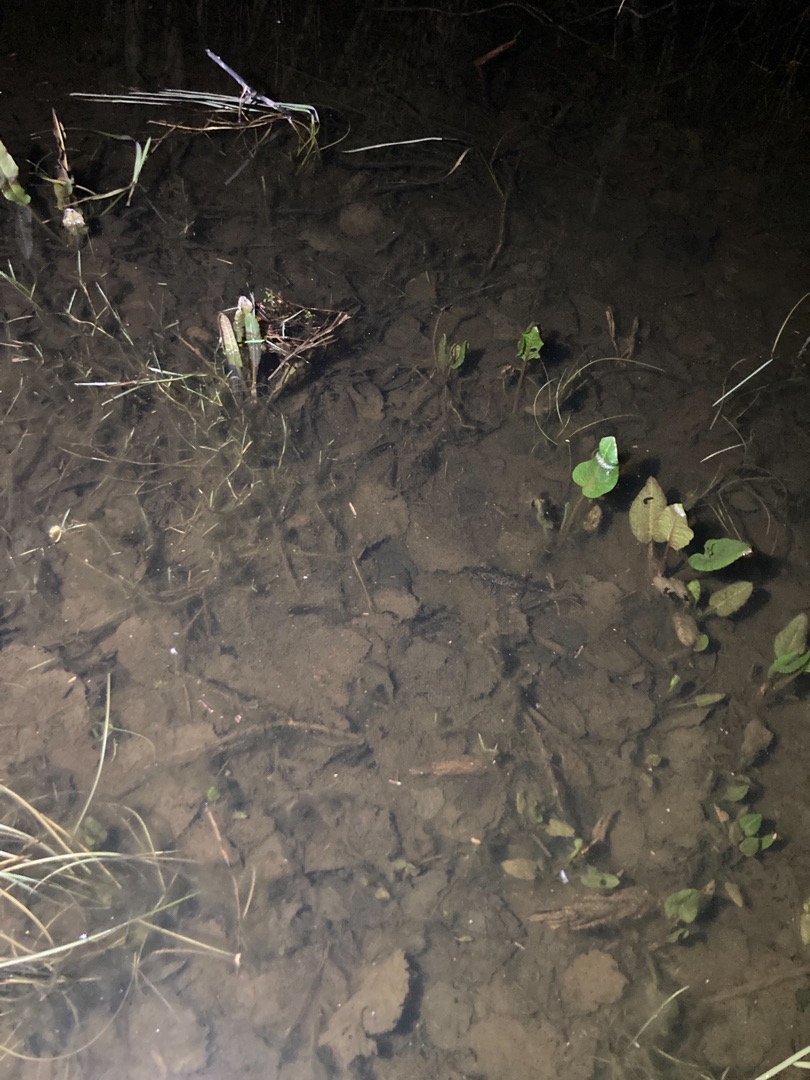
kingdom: Animalia
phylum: Chordata
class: Amphibia
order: Caudata
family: Salamandridae
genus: Triturus
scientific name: Triturus cristatus
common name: Stor vandsalamander
